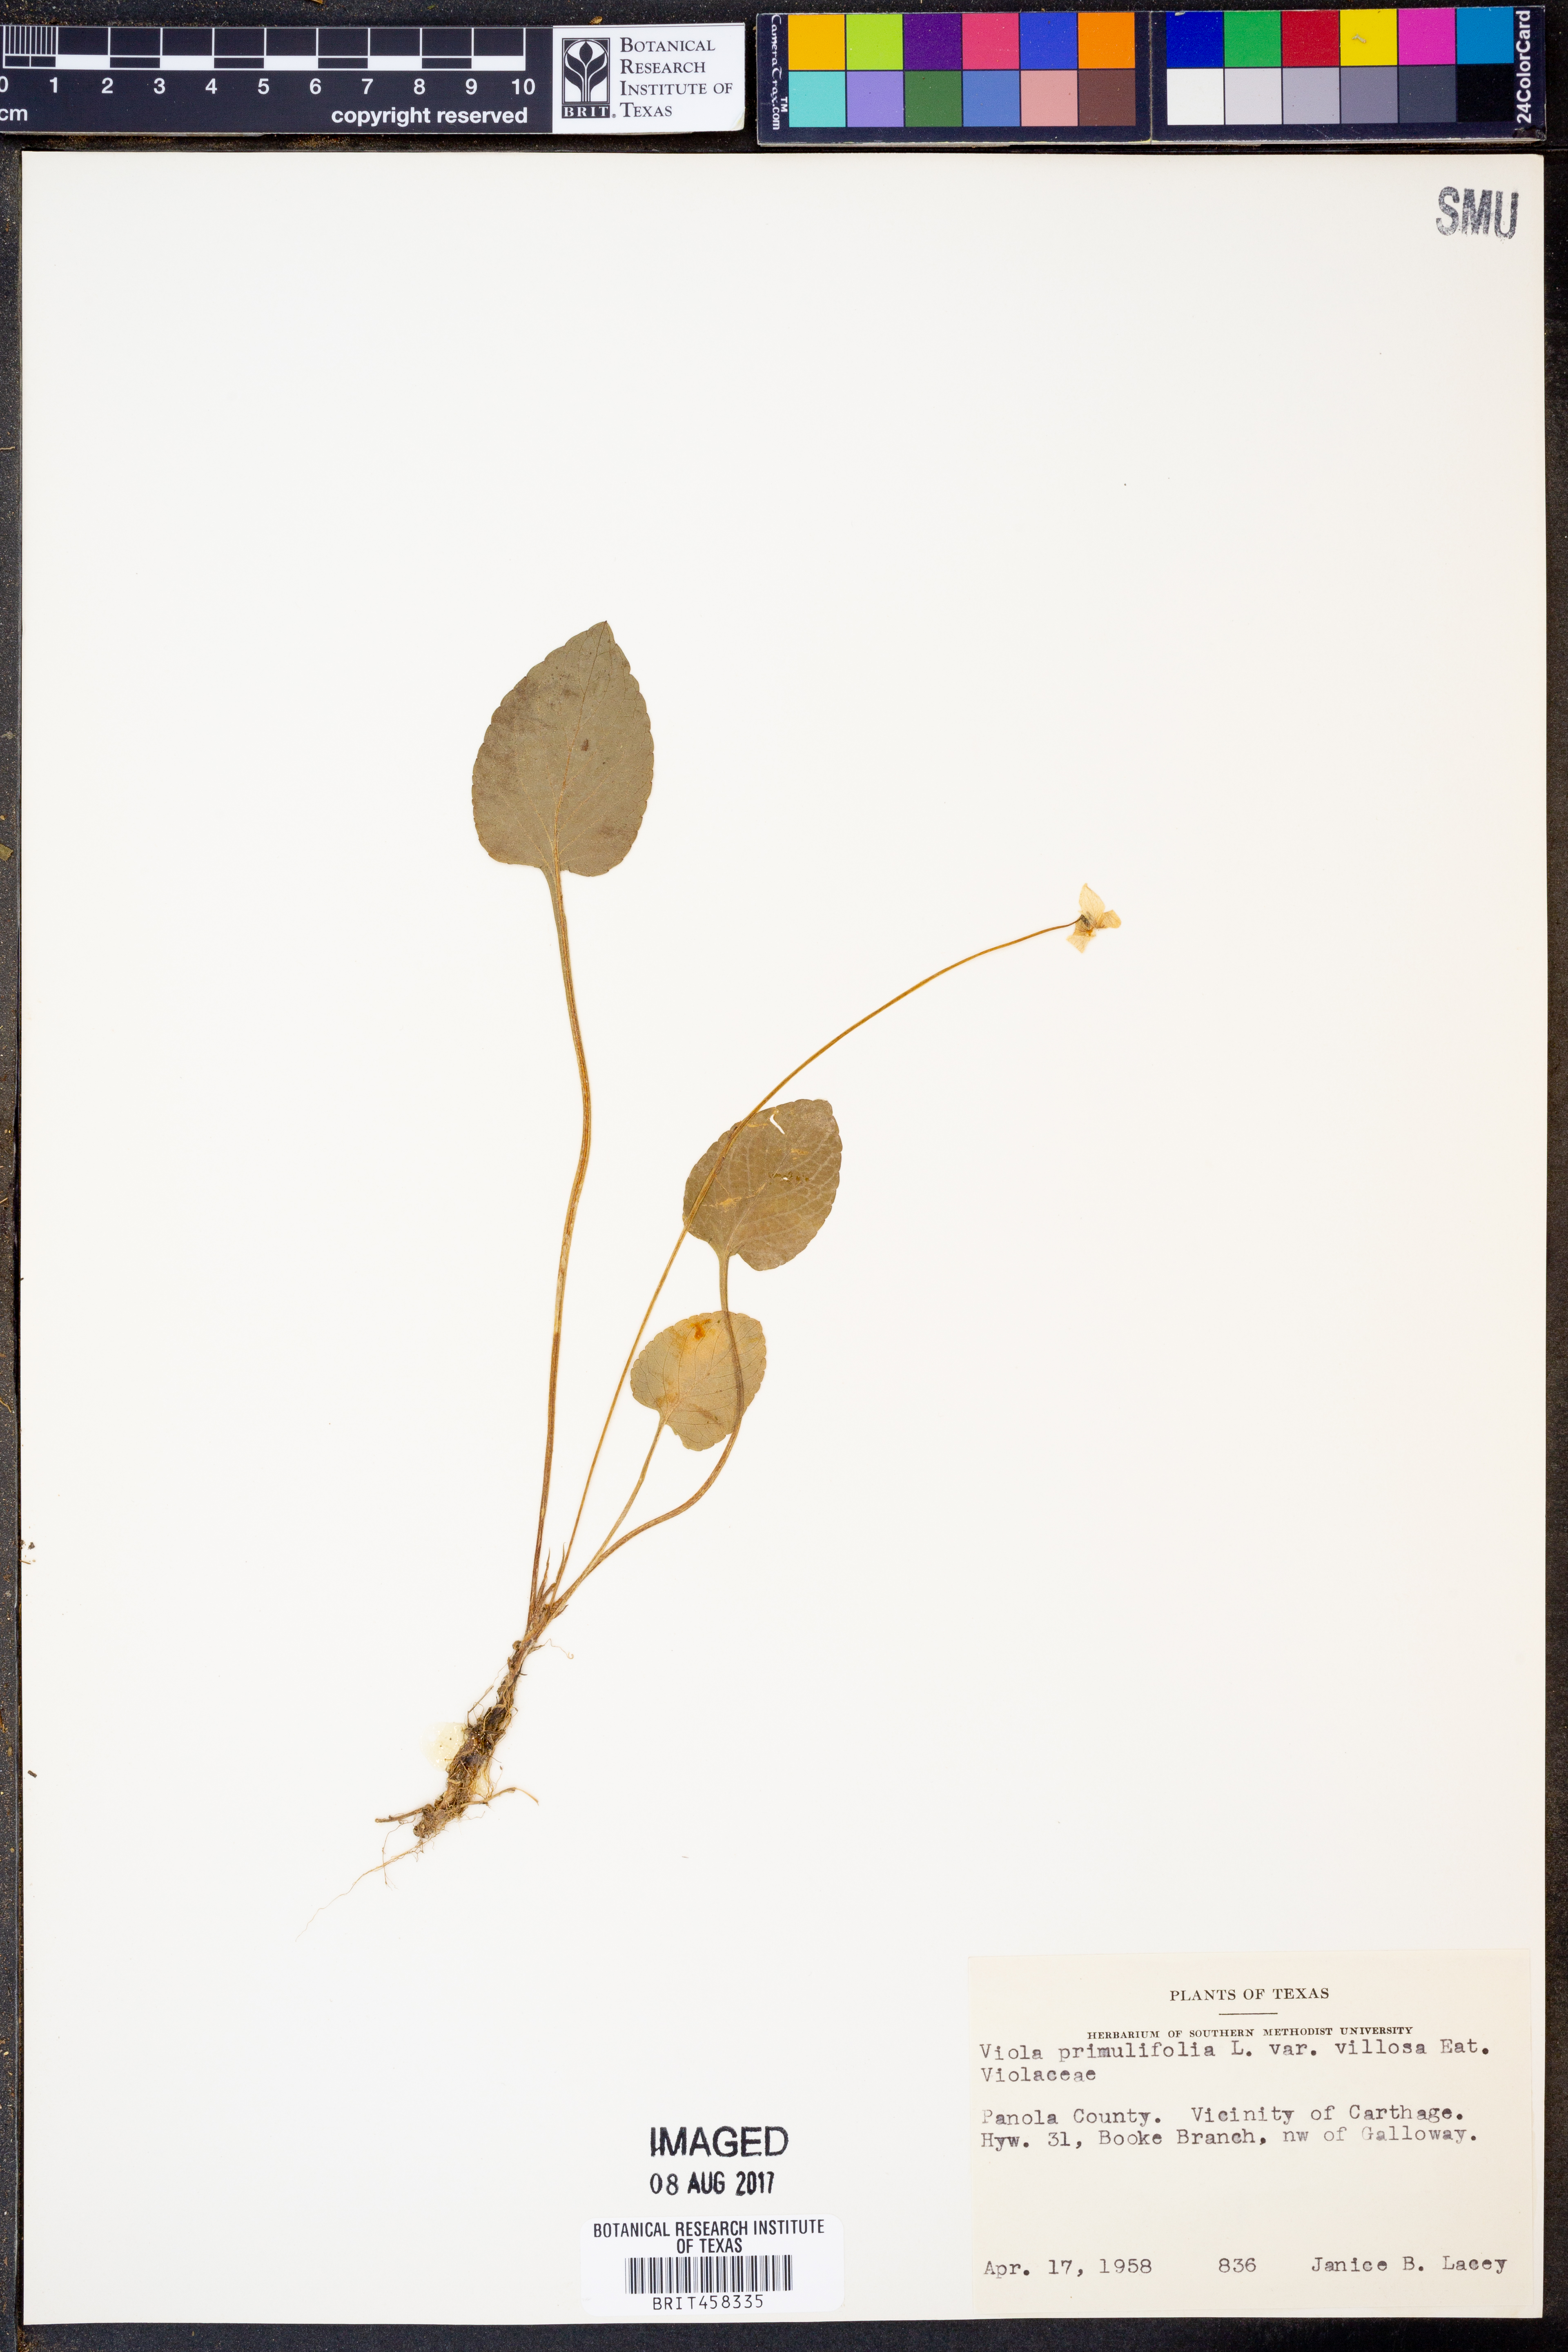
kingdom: Plantae
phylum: Tracheophyta
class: Magnoliopsida
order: Malpighiales
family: Violaceae
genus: Viola
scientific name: Viola primulifolia
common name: Primrose-leaf violet
